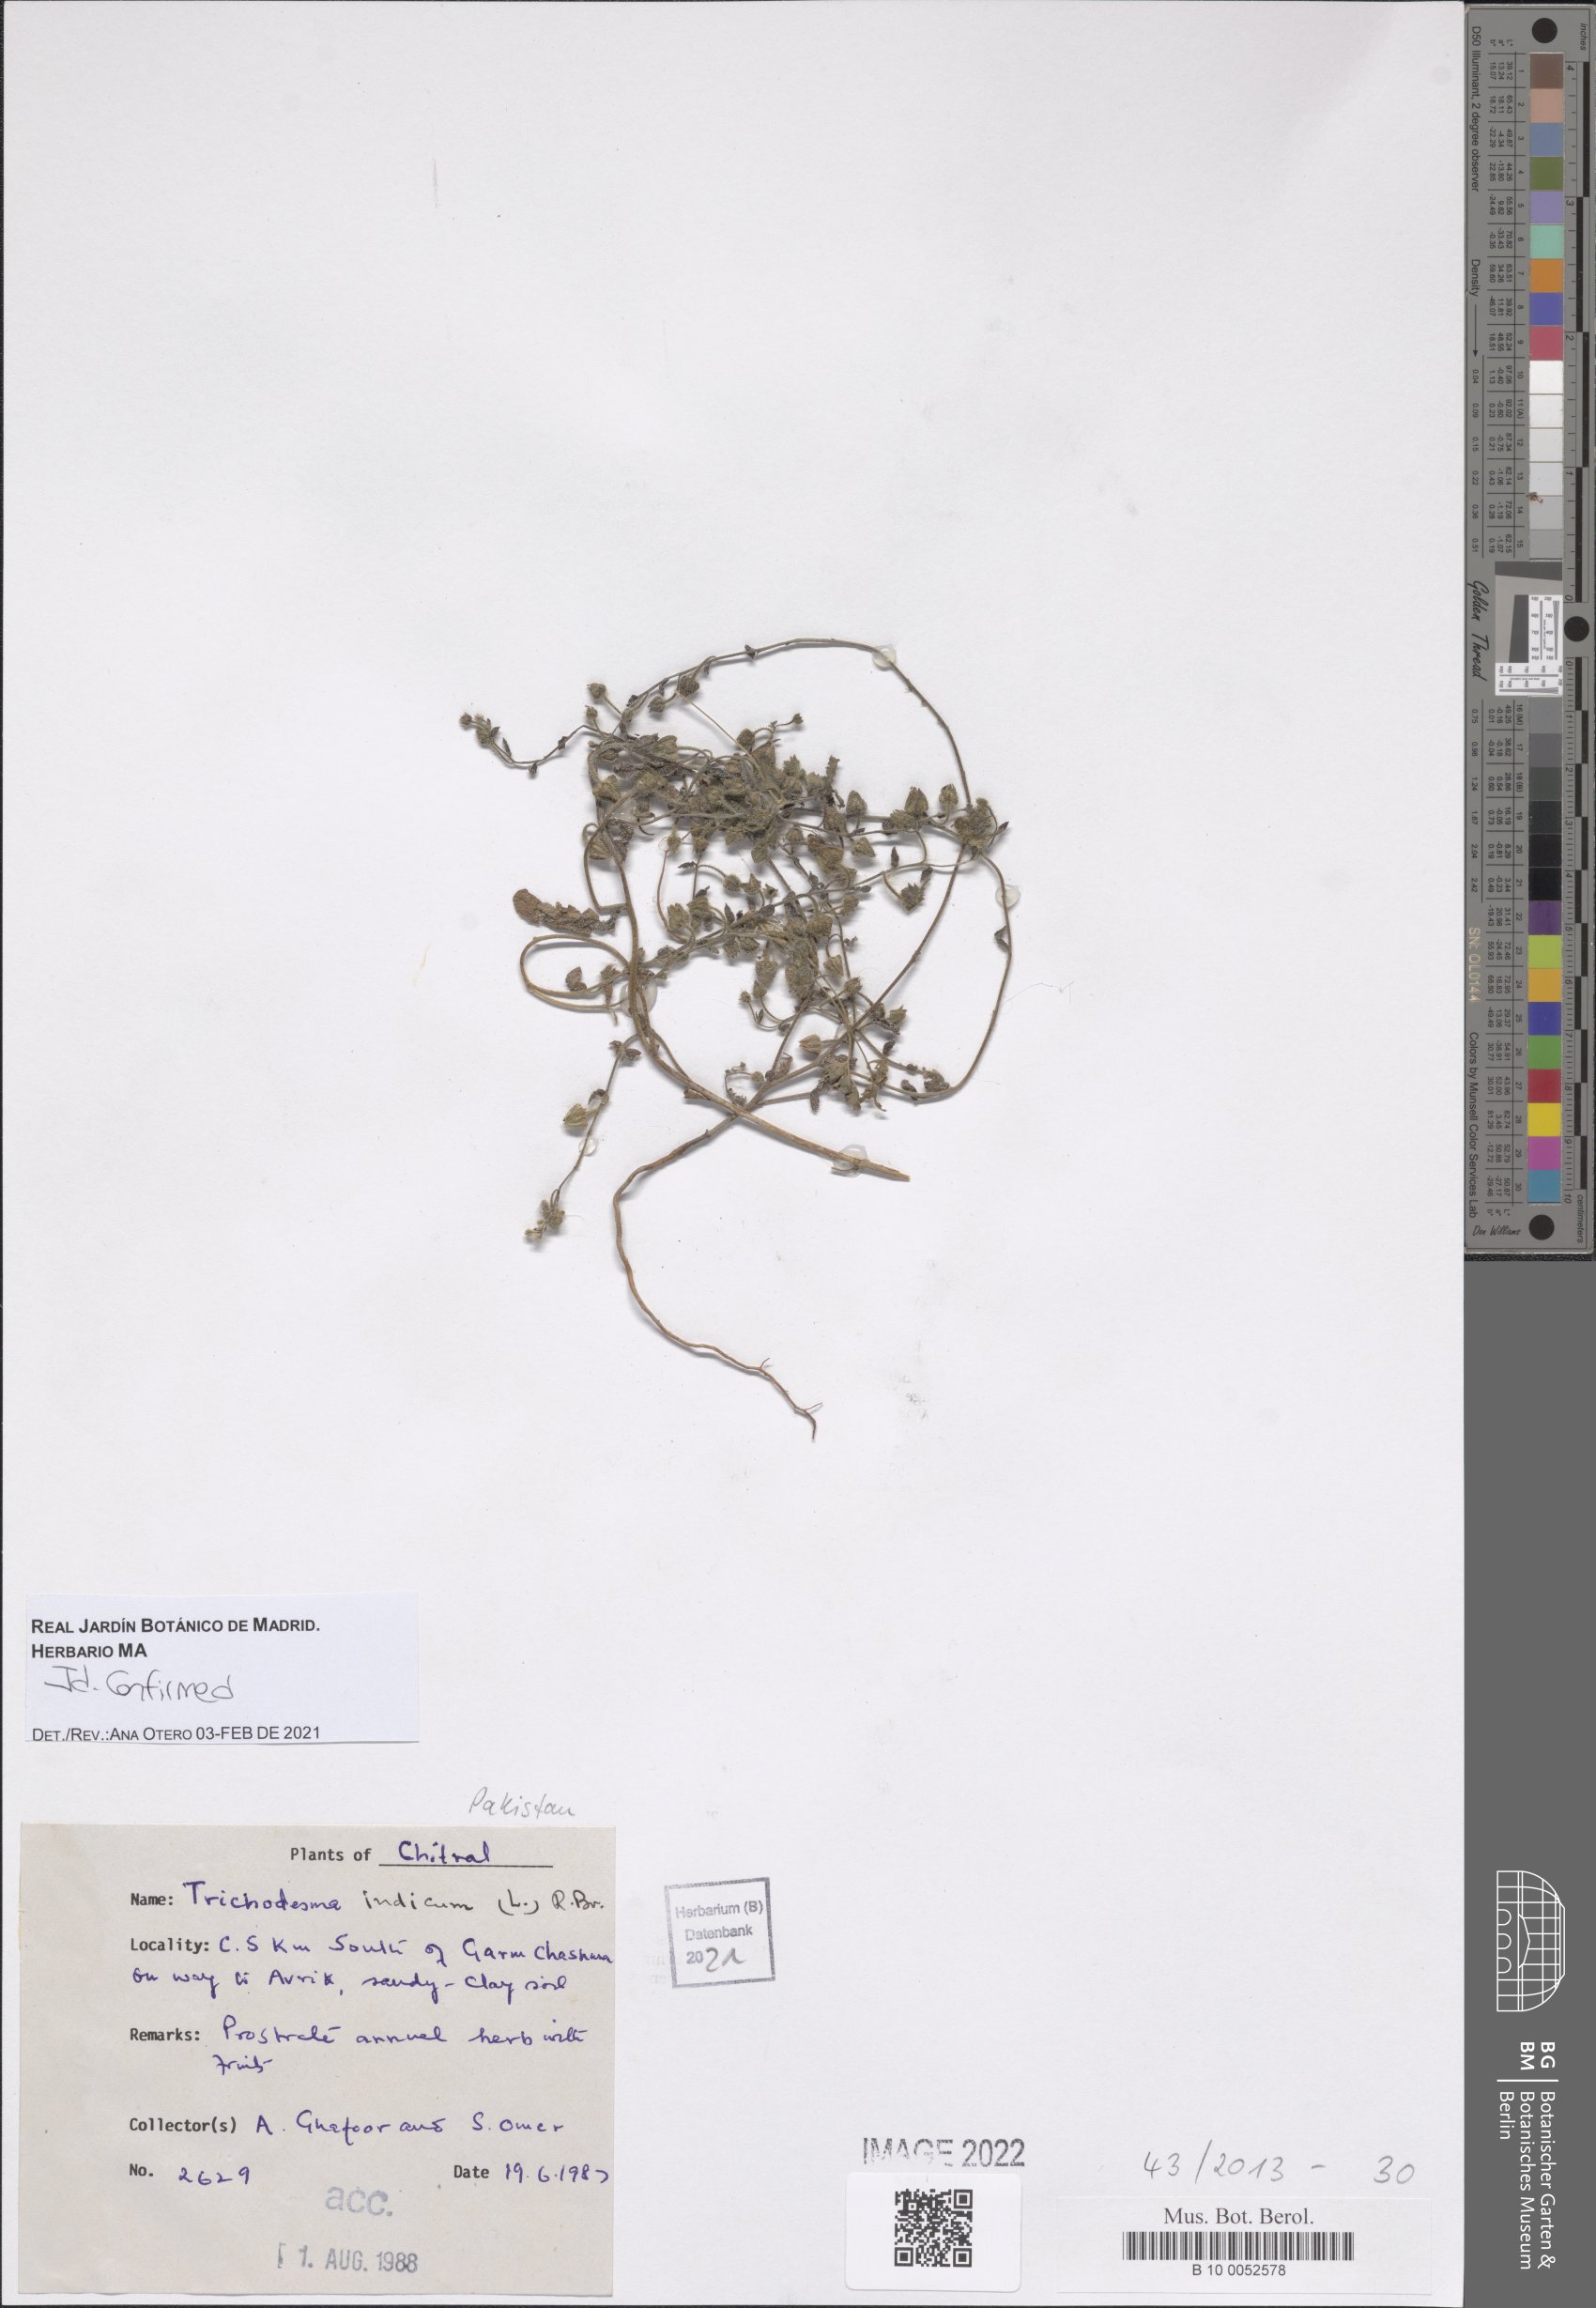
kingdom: Plantae
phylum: Tracheophyta
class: Magnoliopsida
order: Boraginales
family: Boraginaceae
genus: Trichodesma
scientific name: Trichodesma indicum
